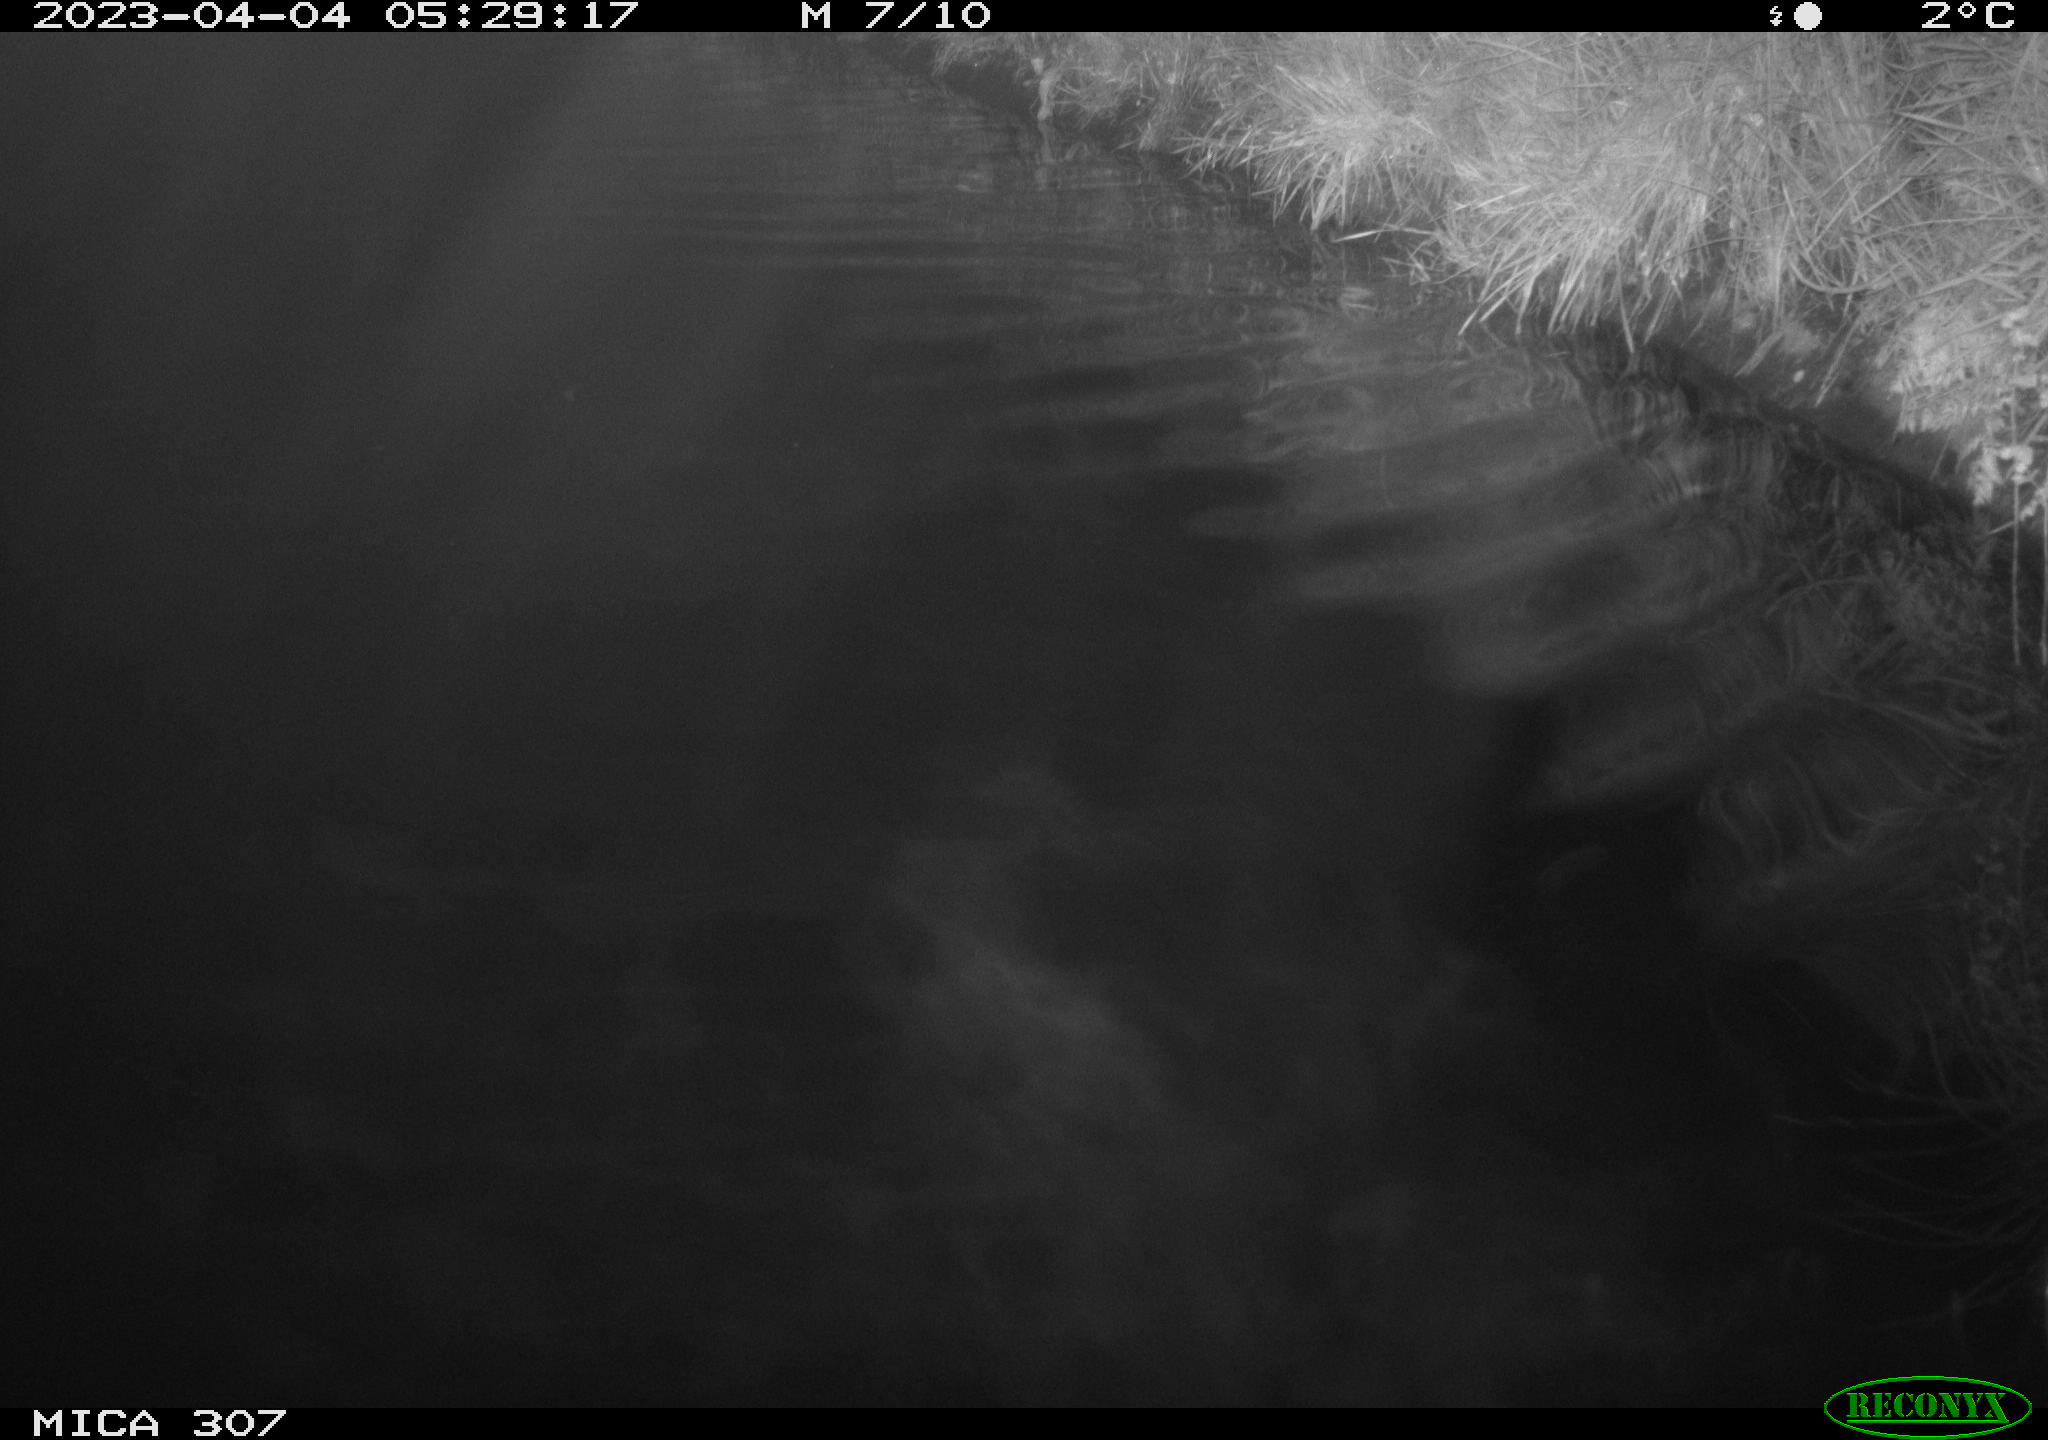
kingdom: Animalia
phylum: Chordata
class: Aves
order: Anseriformes
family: Anatidae
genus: Anas
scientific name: Anas
